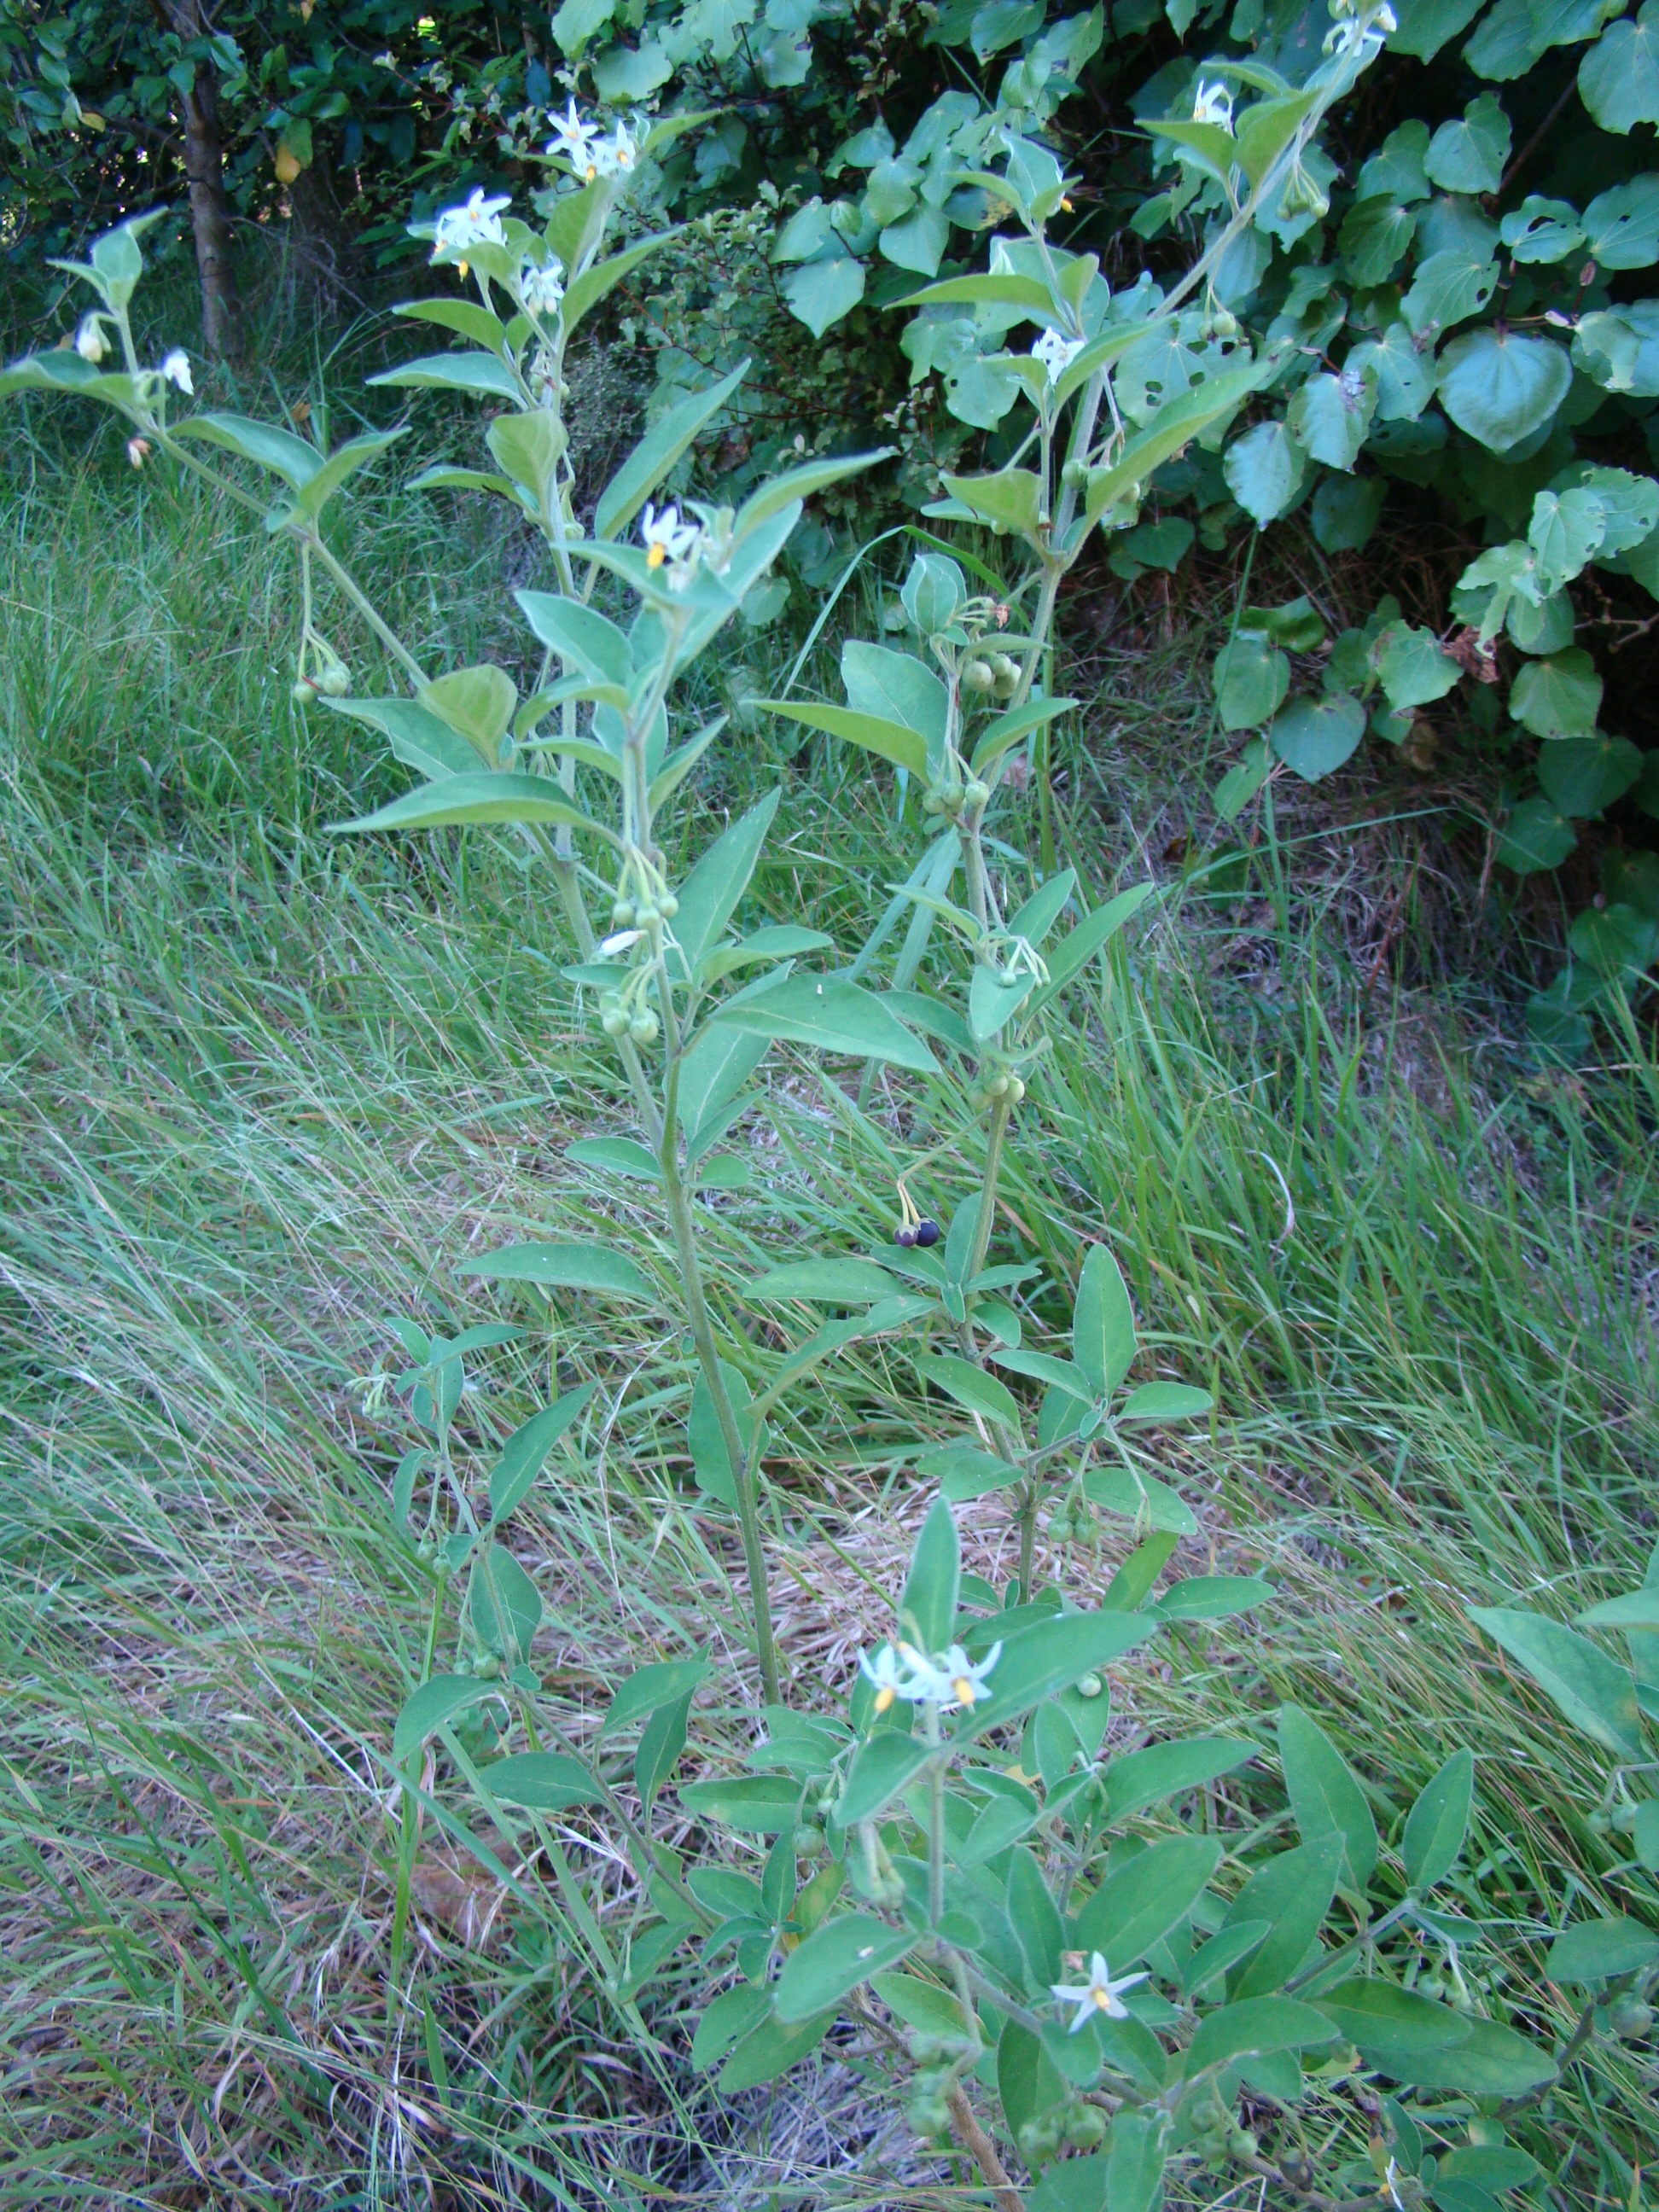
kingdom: Plantae
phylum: Tracheophyta
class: Magnoliopsida
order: Solanales
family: Solanaceae
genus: Solanum
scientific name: Solanum chenopodioides
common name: Tall nightshade
